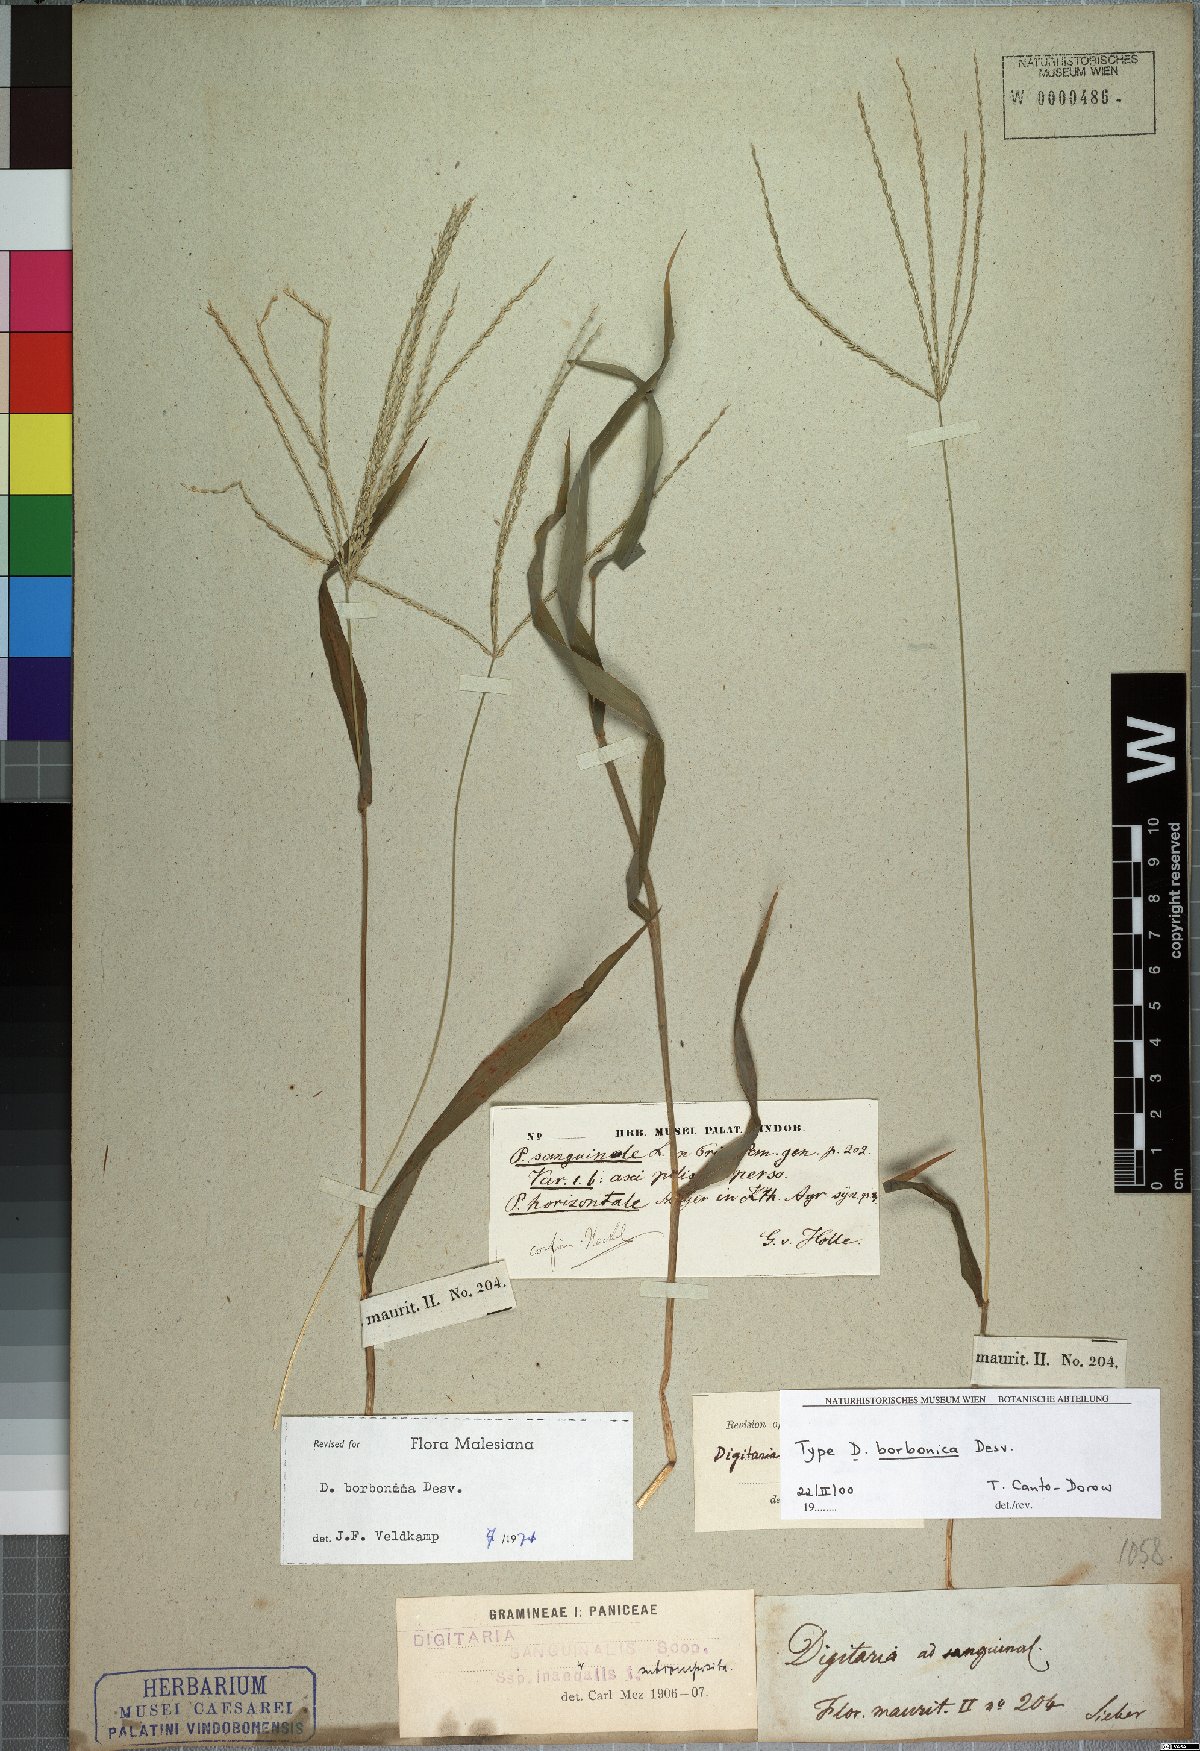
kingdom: Plantae
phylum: Tracheophyta
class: Liliopsida
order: Poales
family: Poaceae
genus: Digitaria
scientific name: Digitaria nuda
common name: Naked crabgrass
